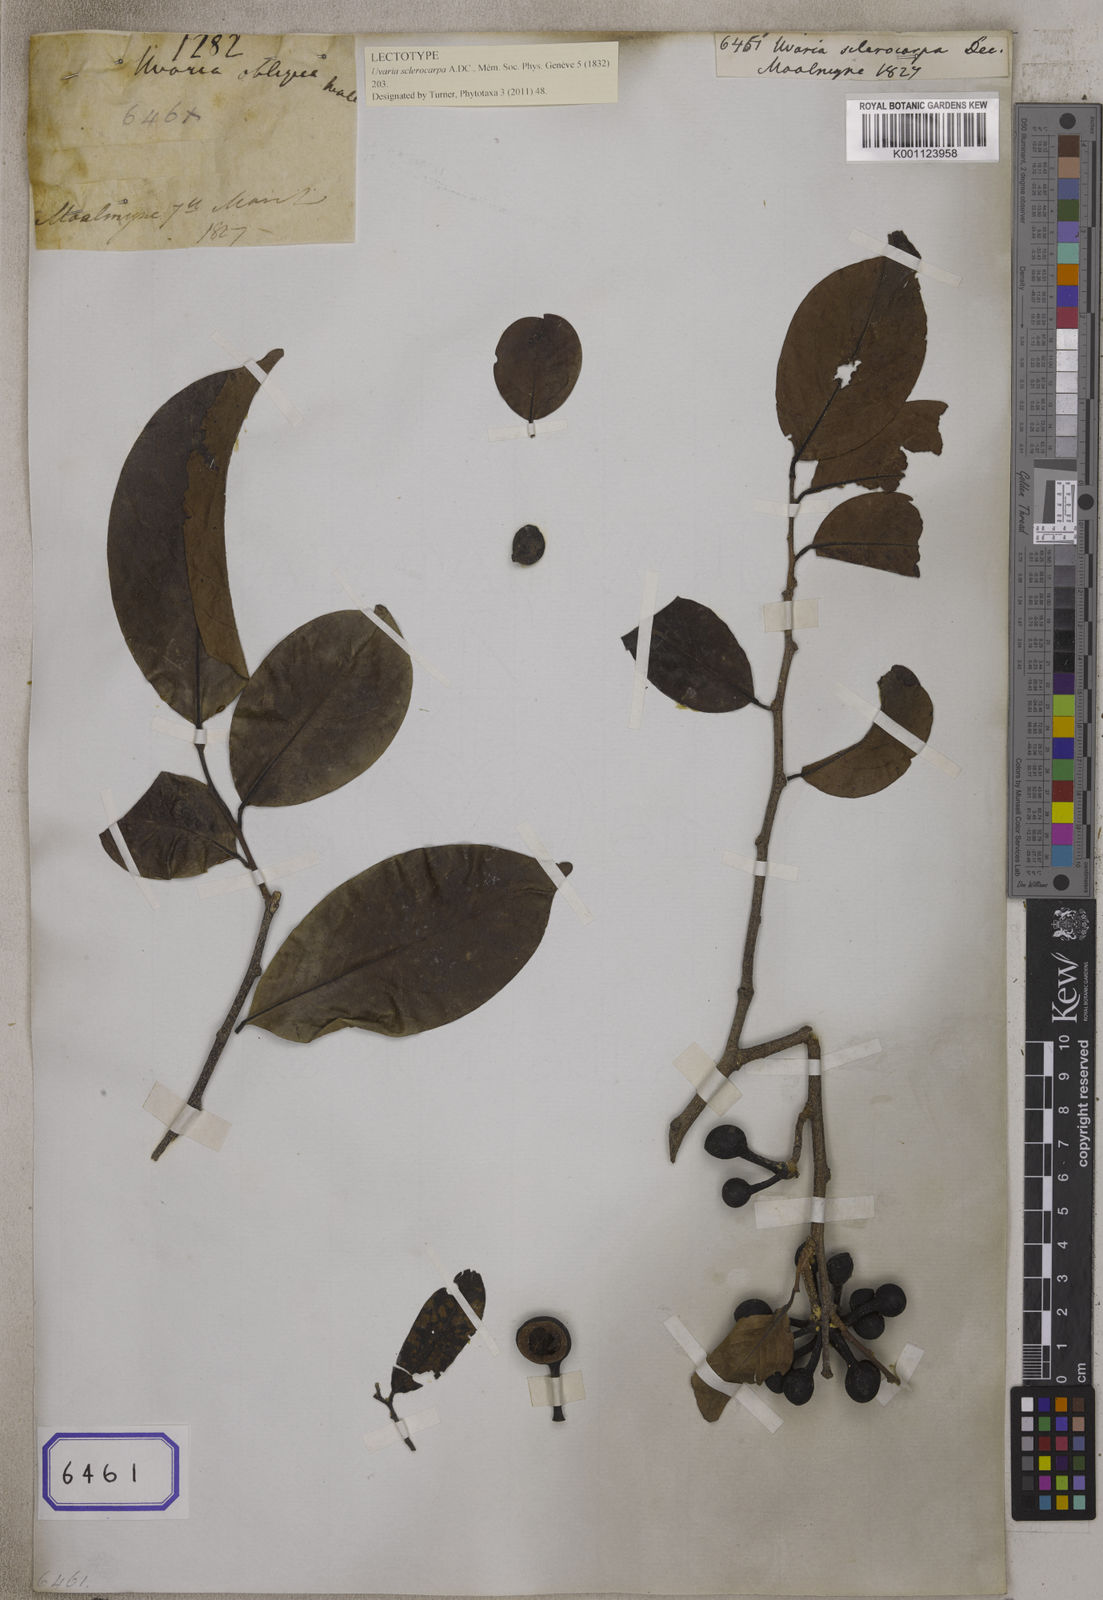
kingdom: Plantae
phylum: Tracheophyta
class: Magnoliopsida
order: Magnoliales
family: Annonaceae
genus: Miliusa
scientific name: Miliusa sclerocarpa
